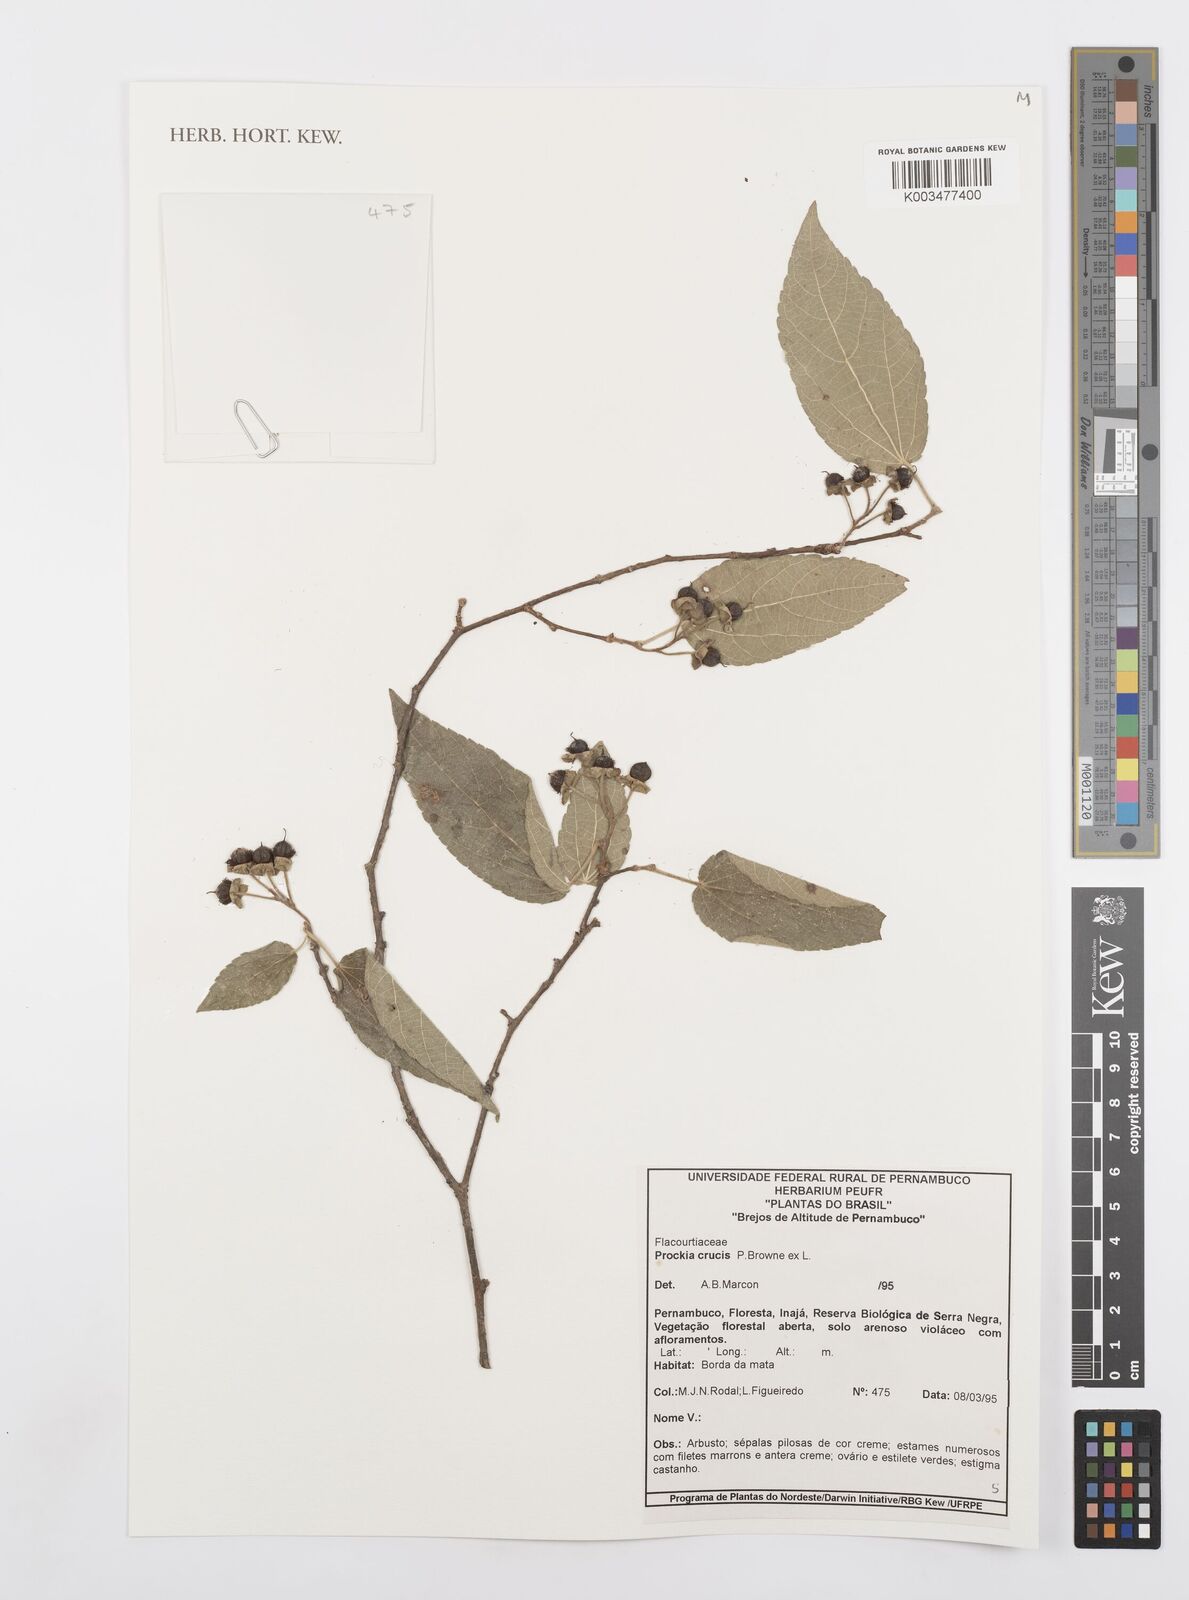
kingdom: Plantae
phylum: Tracheophyta
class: Magnoliopsida
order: Malpighiales
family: Salicaceae
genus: Prockia
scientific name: Prockia crucis
